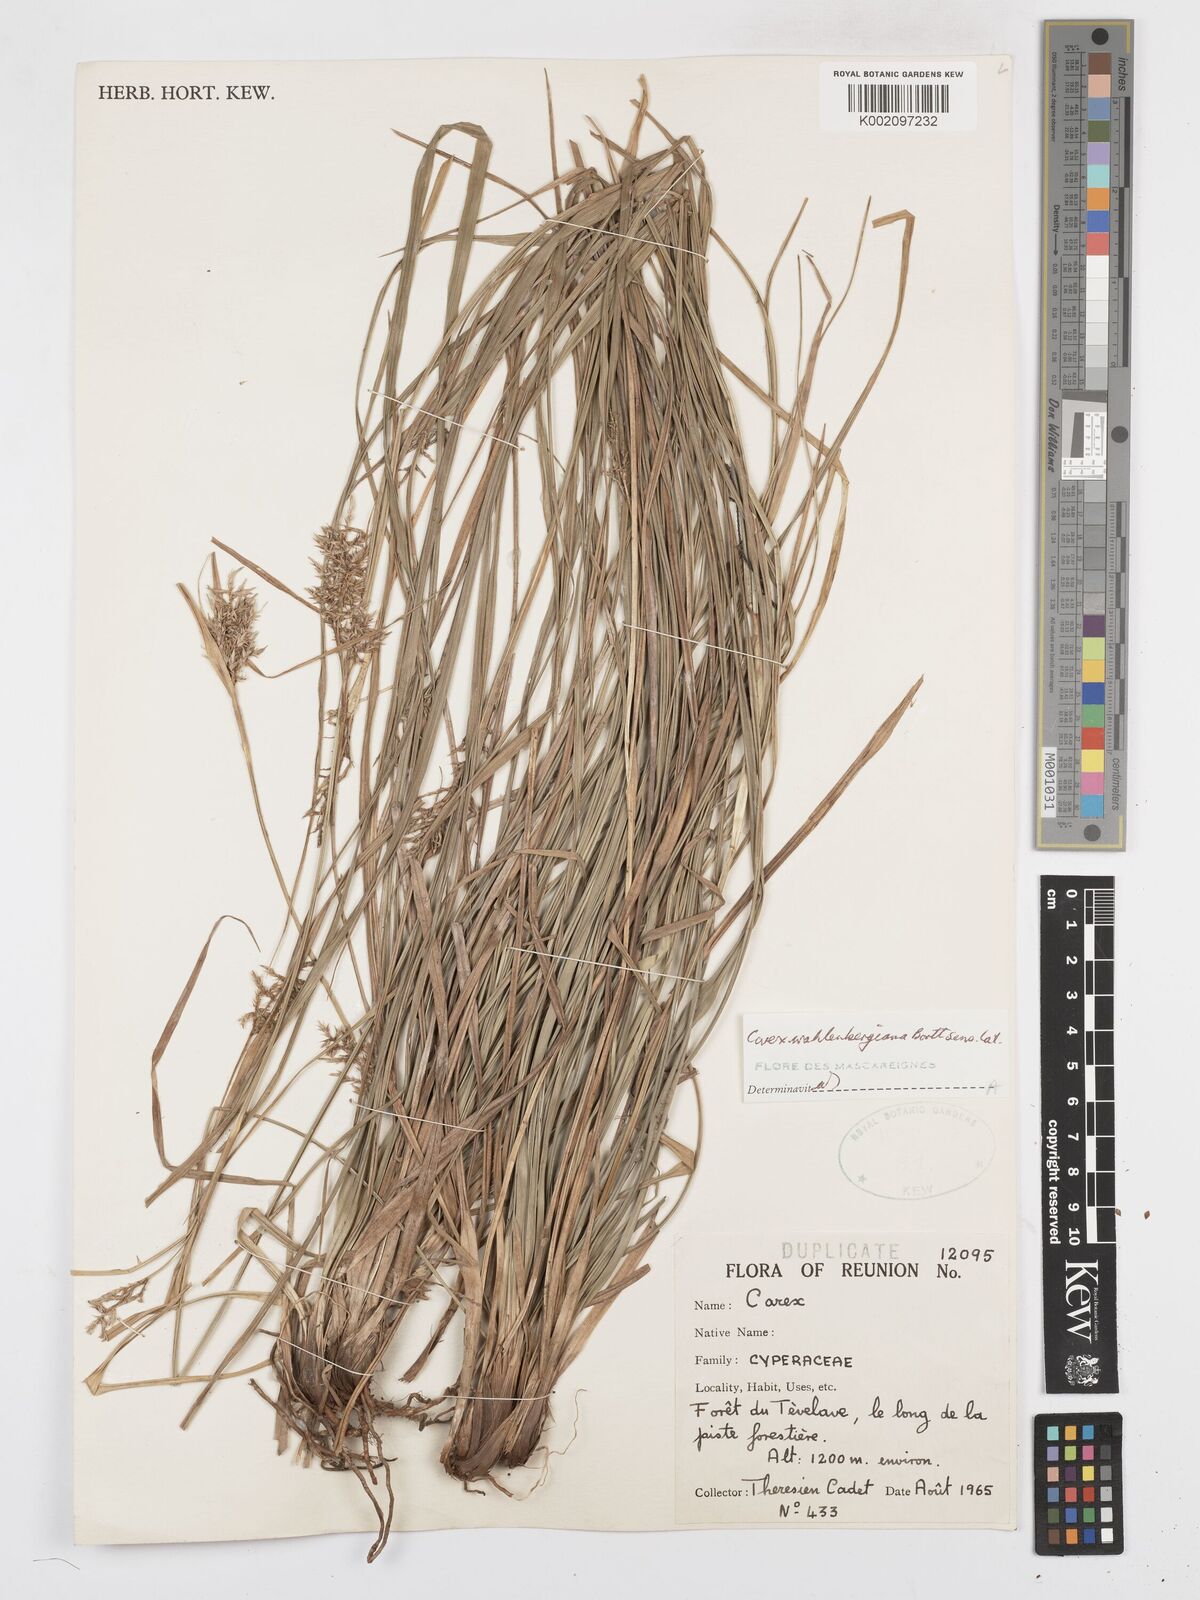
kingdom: Plantae
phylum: Tracheophyta
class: Liliopsida
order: Poales
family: Cyperaceae
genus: Carex
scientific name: Carex wahlenbergiana
